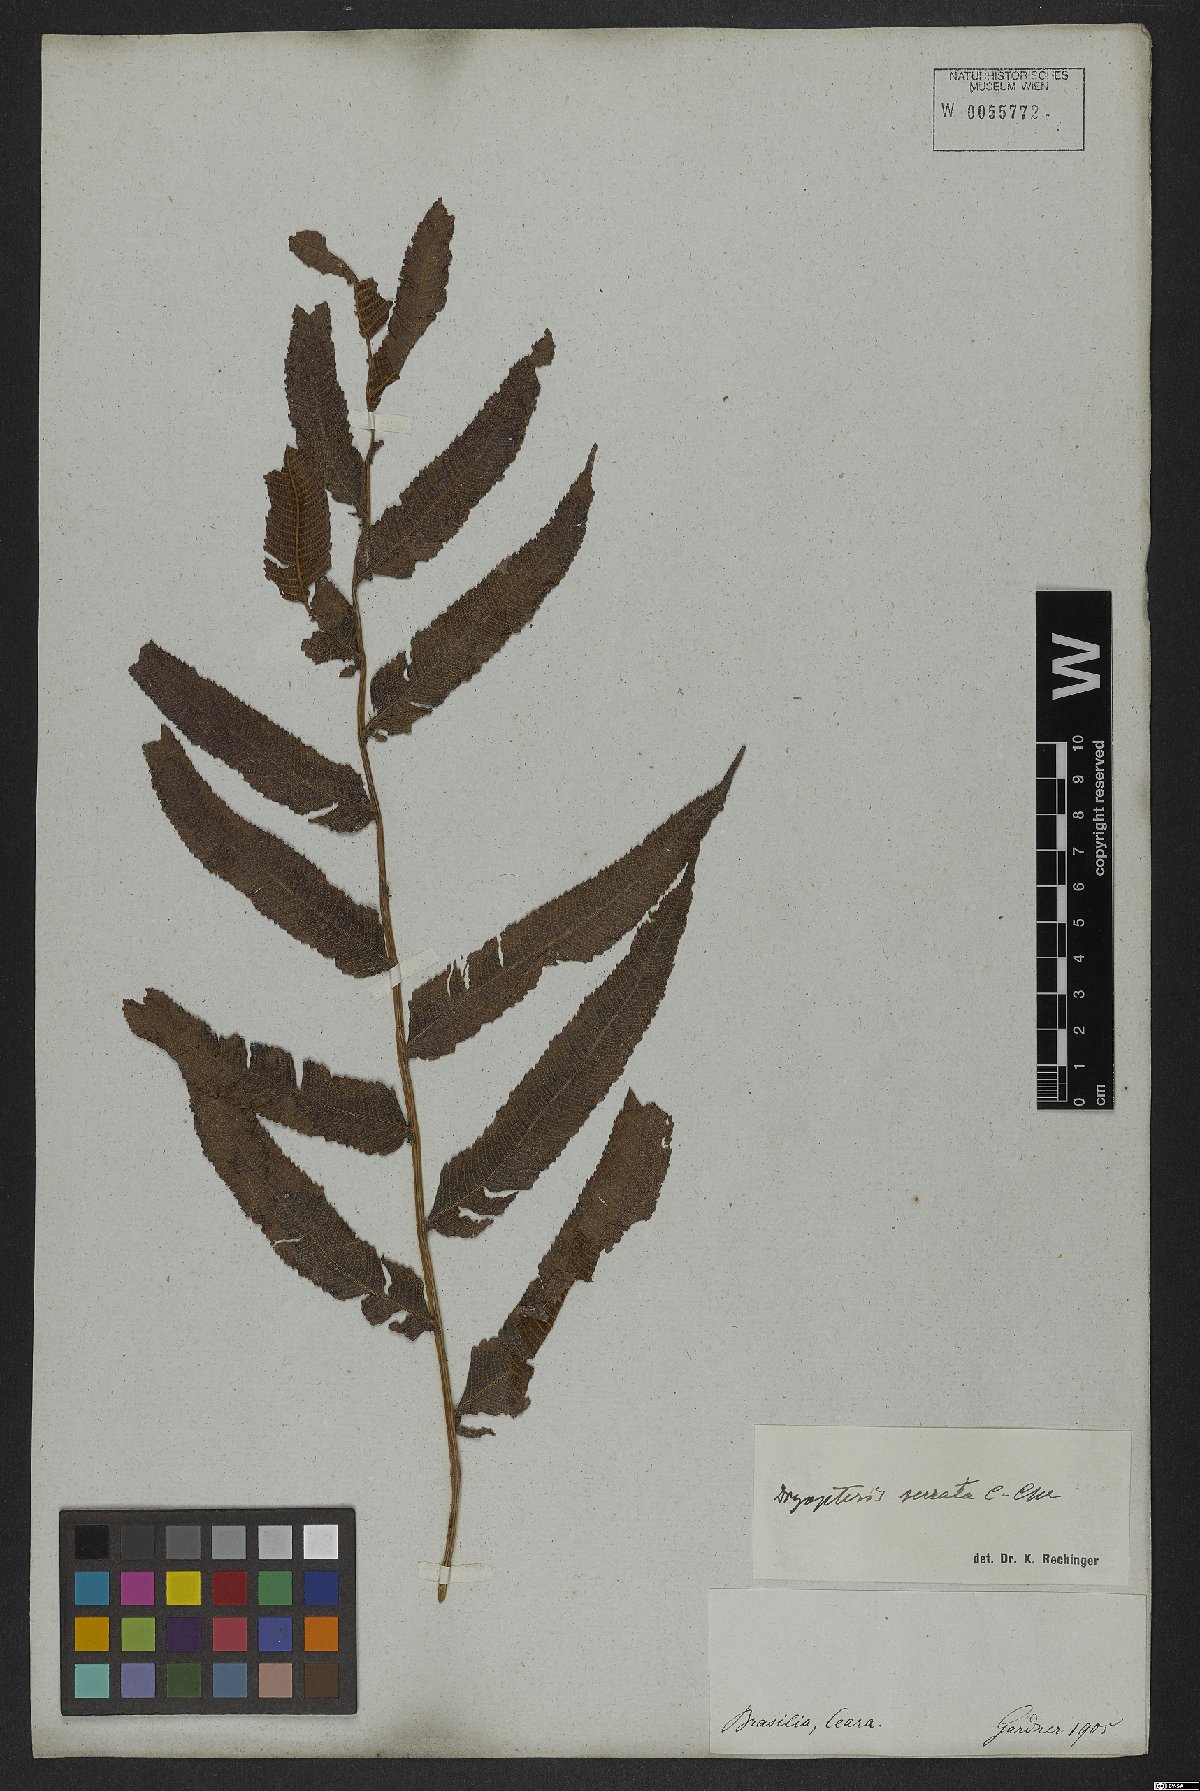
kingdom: Plantae
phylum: Tracheophyta
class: Polypodiopsida
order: Polypodiales
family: Thelypteridaceae
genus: Meniscium
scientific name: Meniscium serratum
